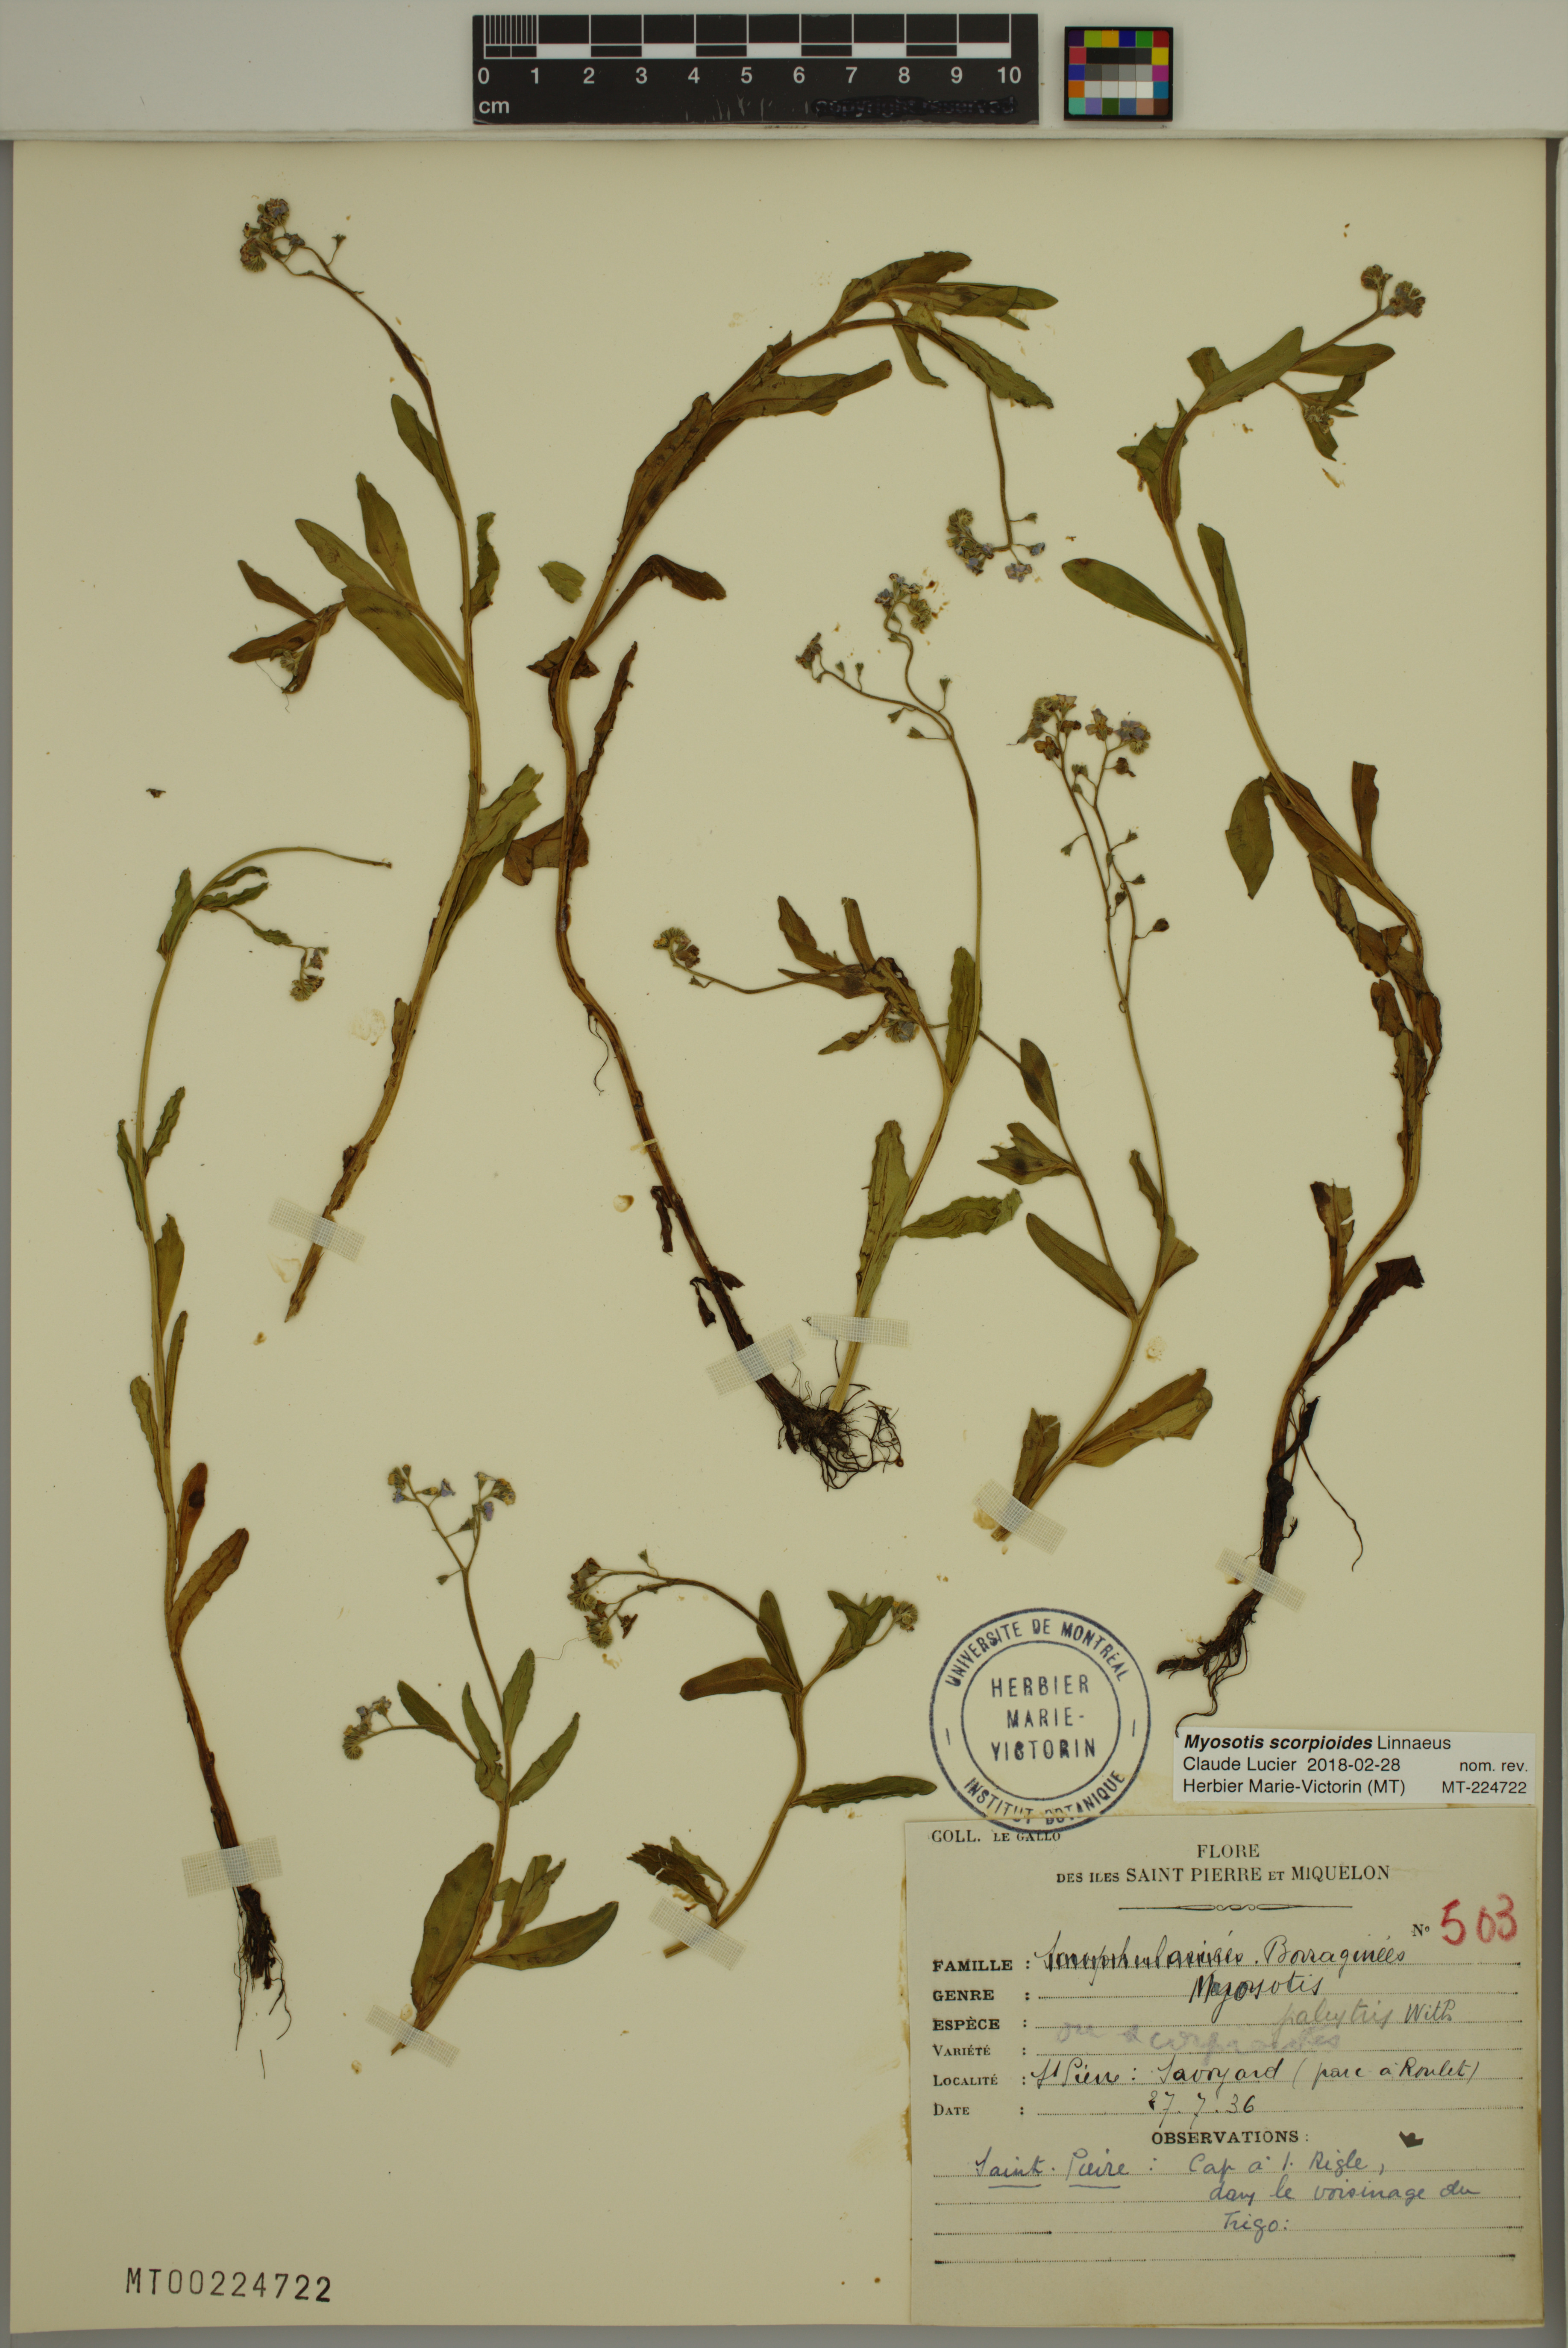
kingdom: Plantae
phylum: Tracheophyta
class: Magnoliopsida
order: Boraginales
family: Boraginaceae
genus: Myosotis
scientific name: Myosotis scorpioides
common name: Water forget-me-not
